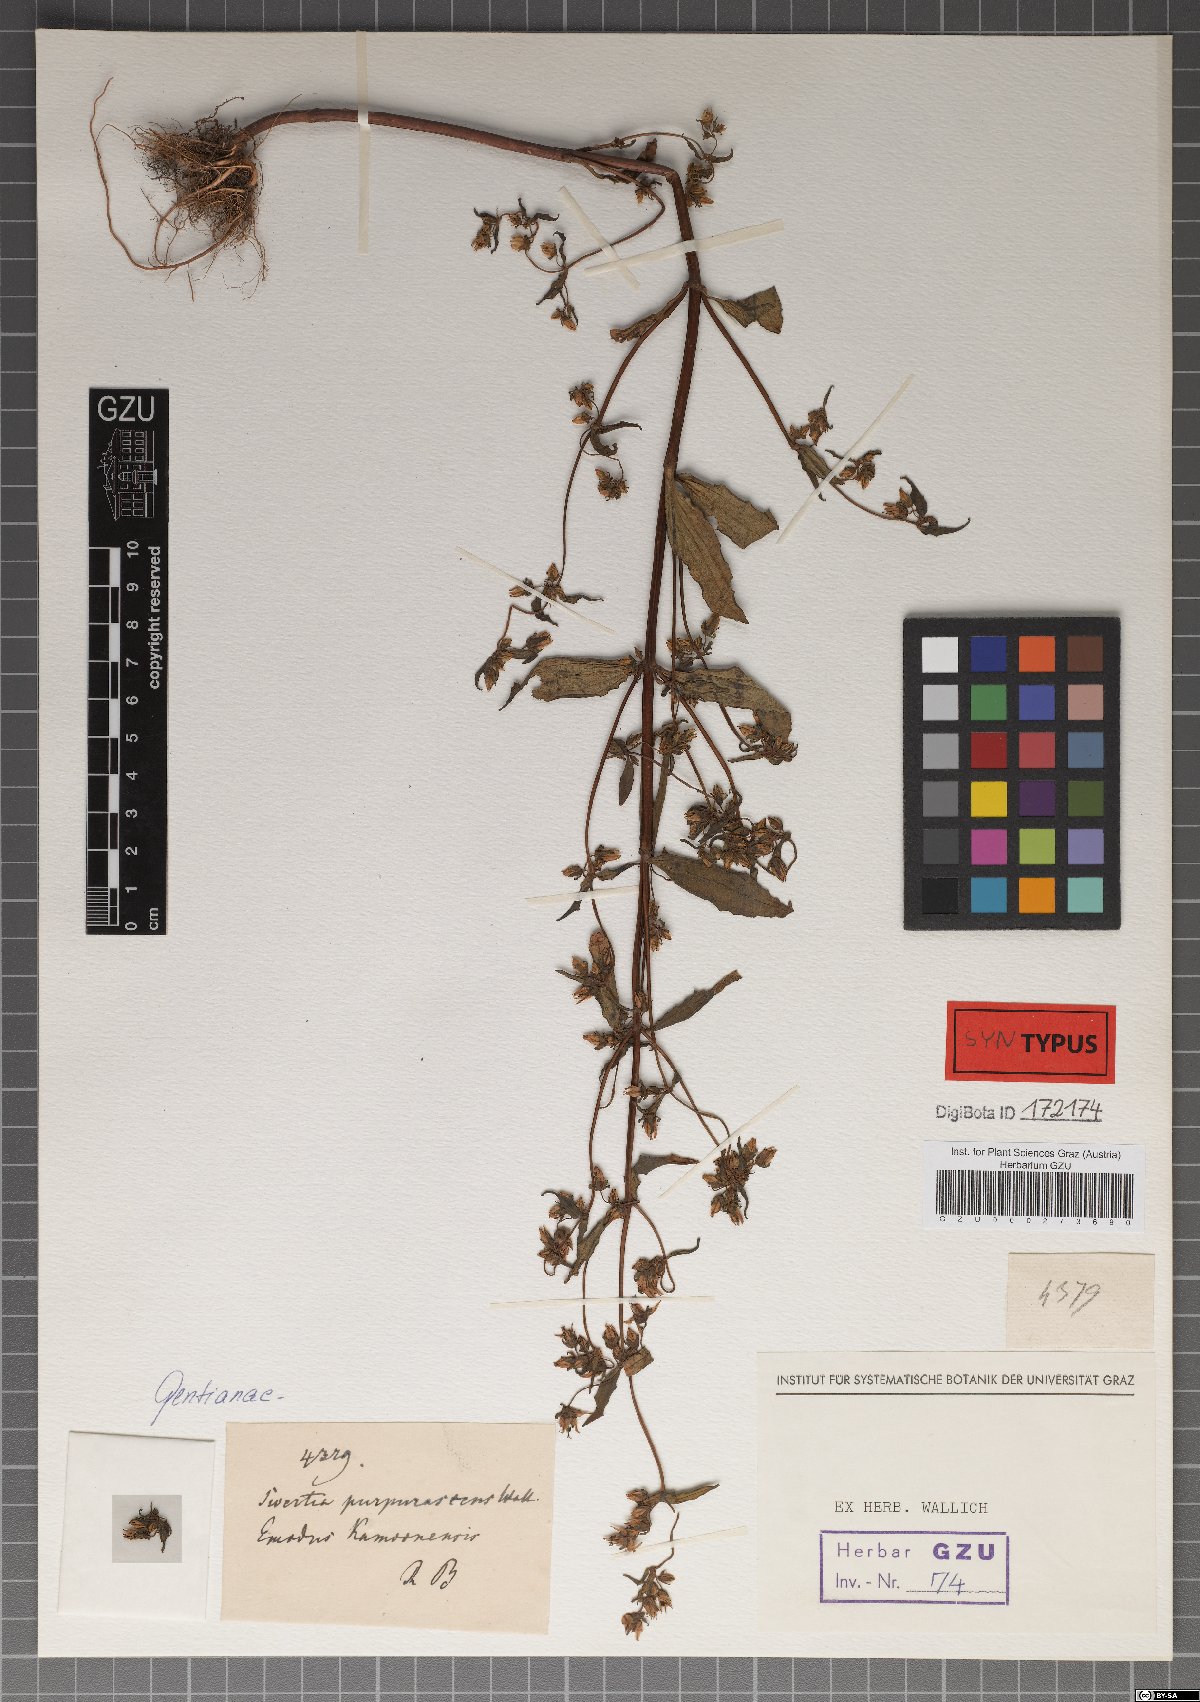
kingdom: Plantae
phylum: Tracheophyta
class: Magnoliopsida
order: Gentianales
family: Gentianaceae
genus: Swertia
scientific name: Swertia purpurascens
